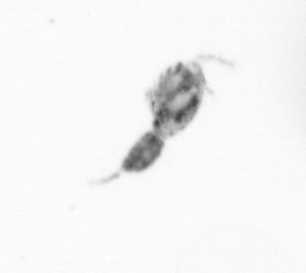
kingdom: Animalia
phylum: Arthropoda
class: Copepoda
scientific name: Copepoda
